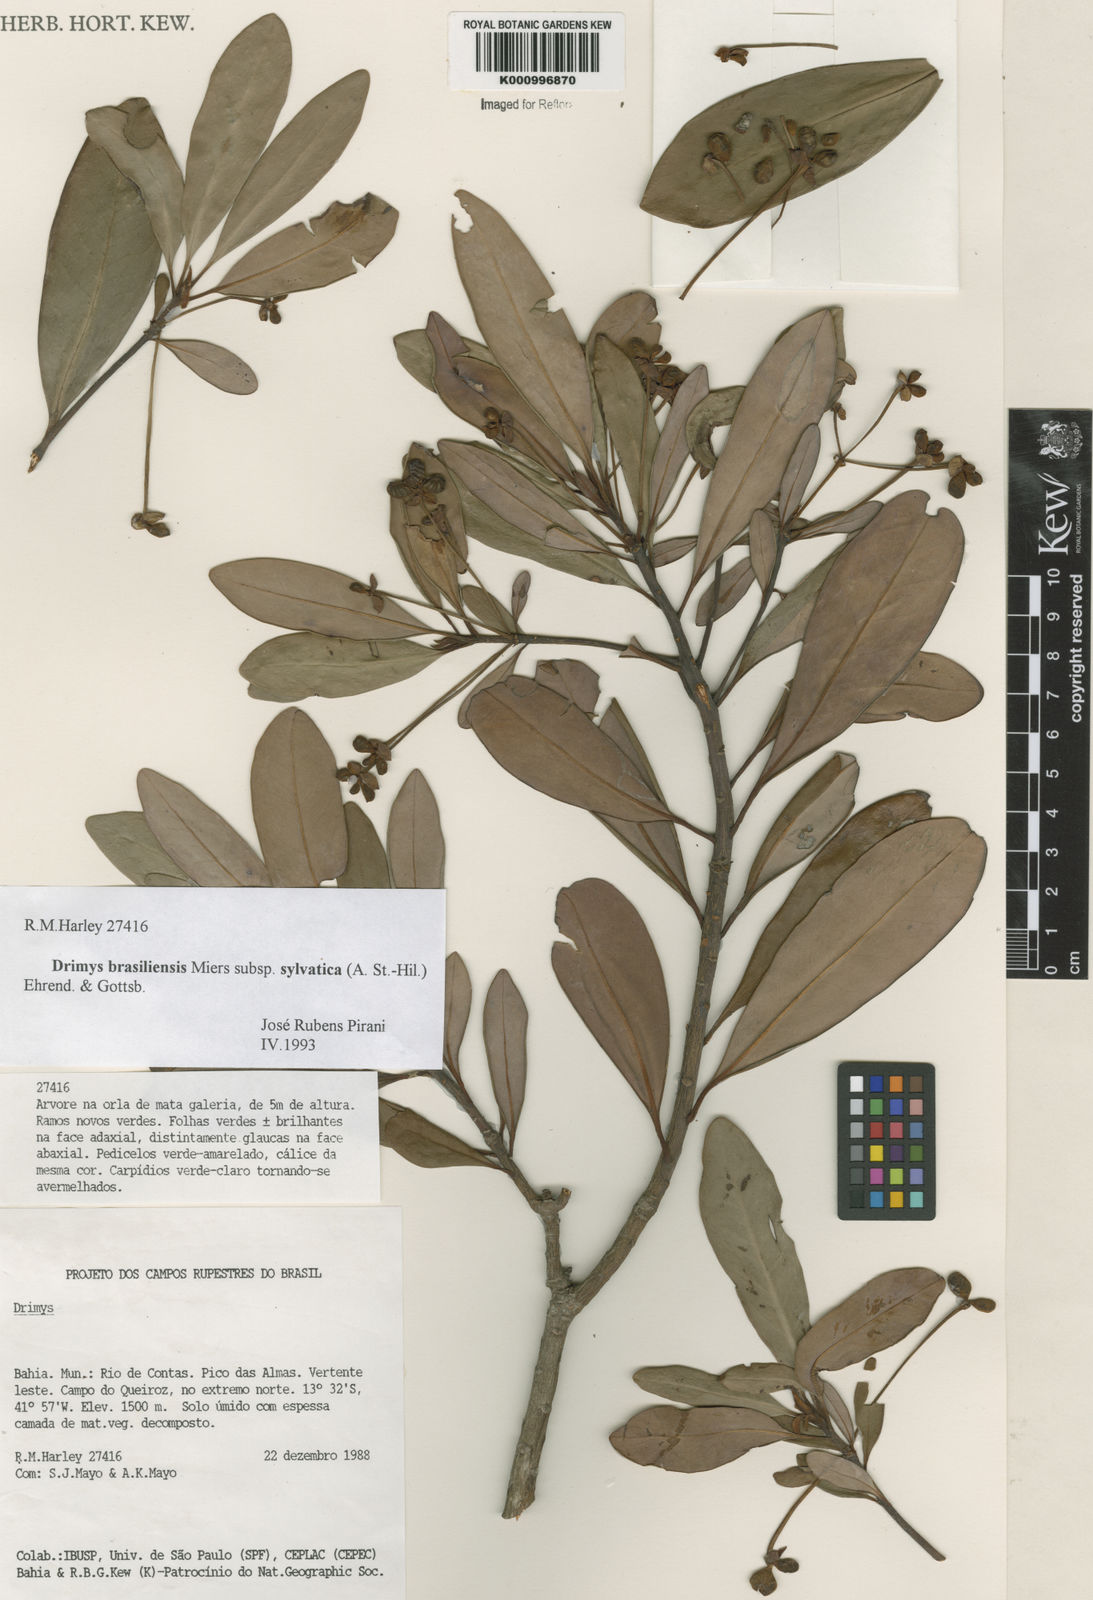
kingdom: Plantae
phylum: Tracheophyta
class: Magnoliopsida
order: Canellales
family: Winteraceae
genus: Drimys
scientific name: Drimys brasiliensis
